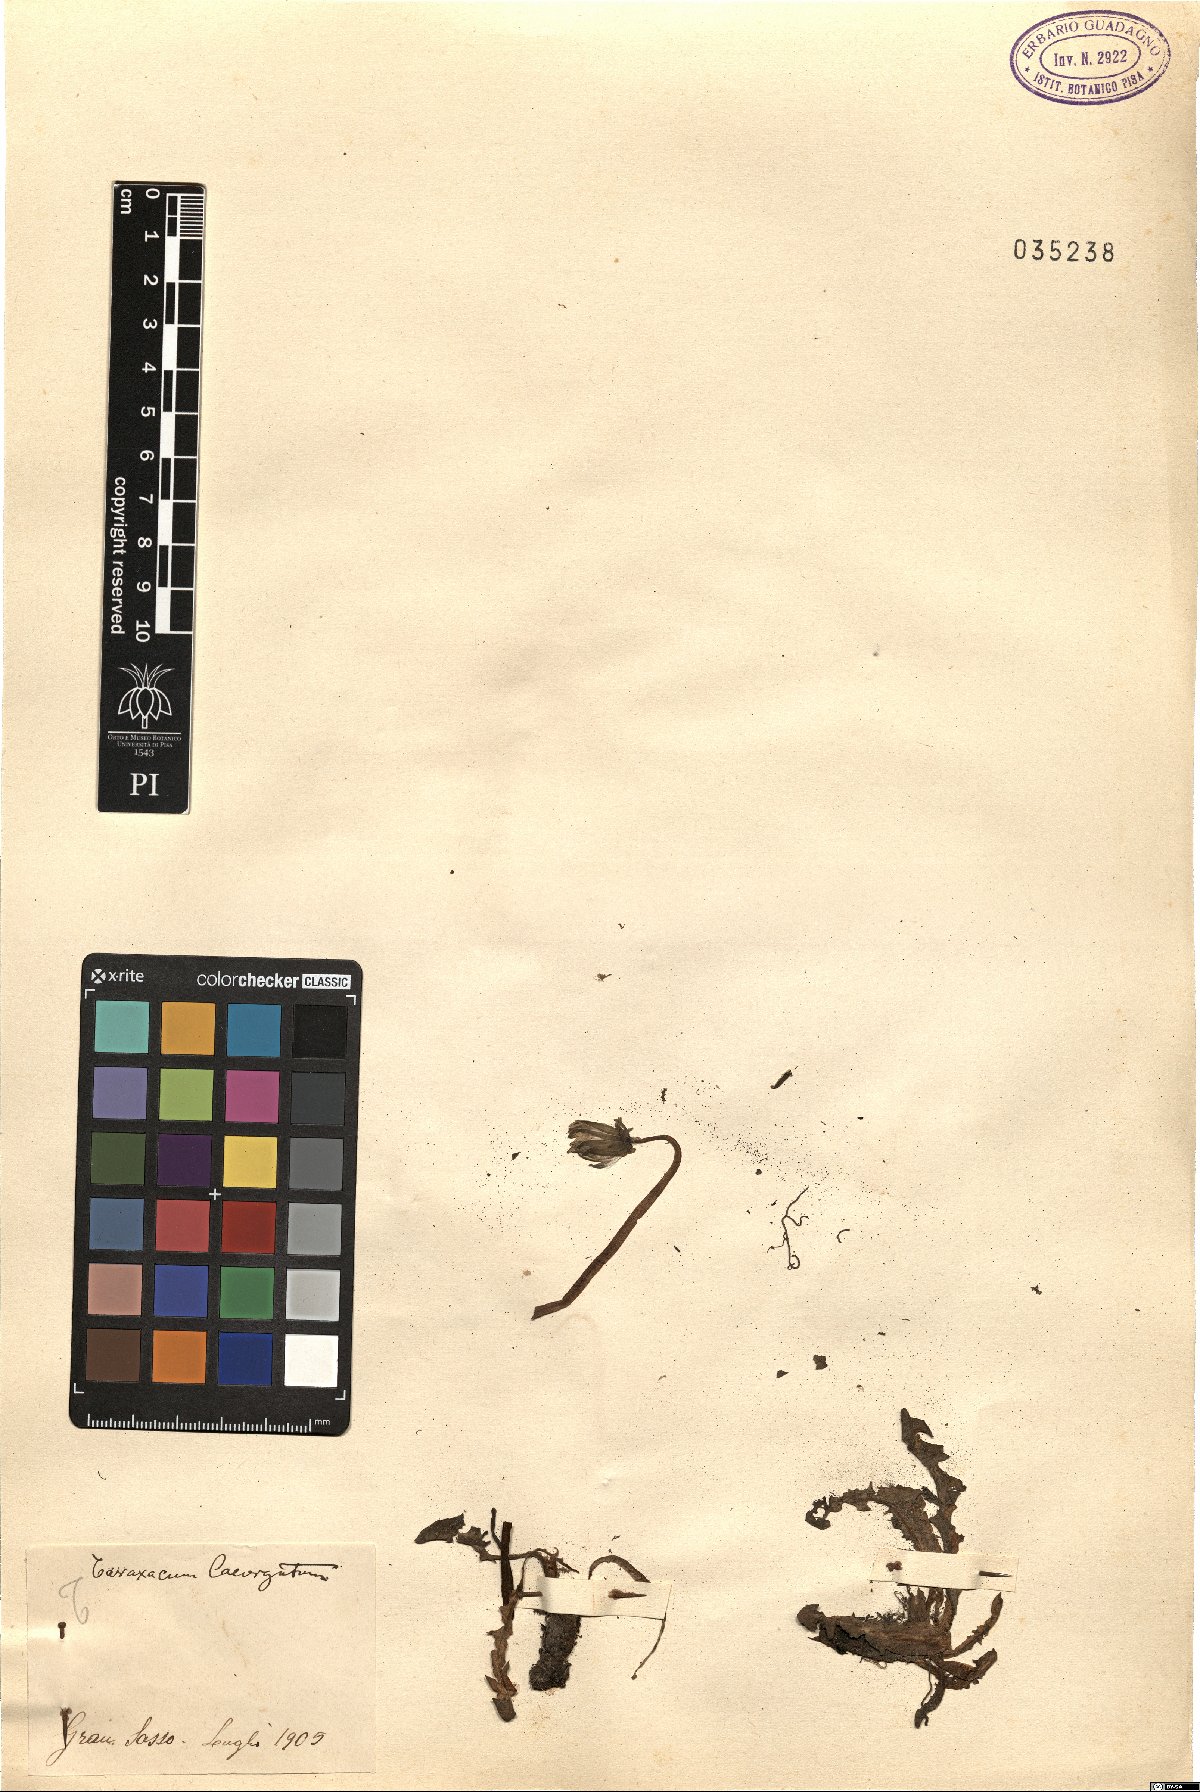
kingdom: Plantae
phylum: Tracheophyta
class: Magnoliopsida
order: Asterales
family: Asteraceae
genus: Taraxacum
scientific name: Taraxacum erythrospermum
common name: Rock dandelion
